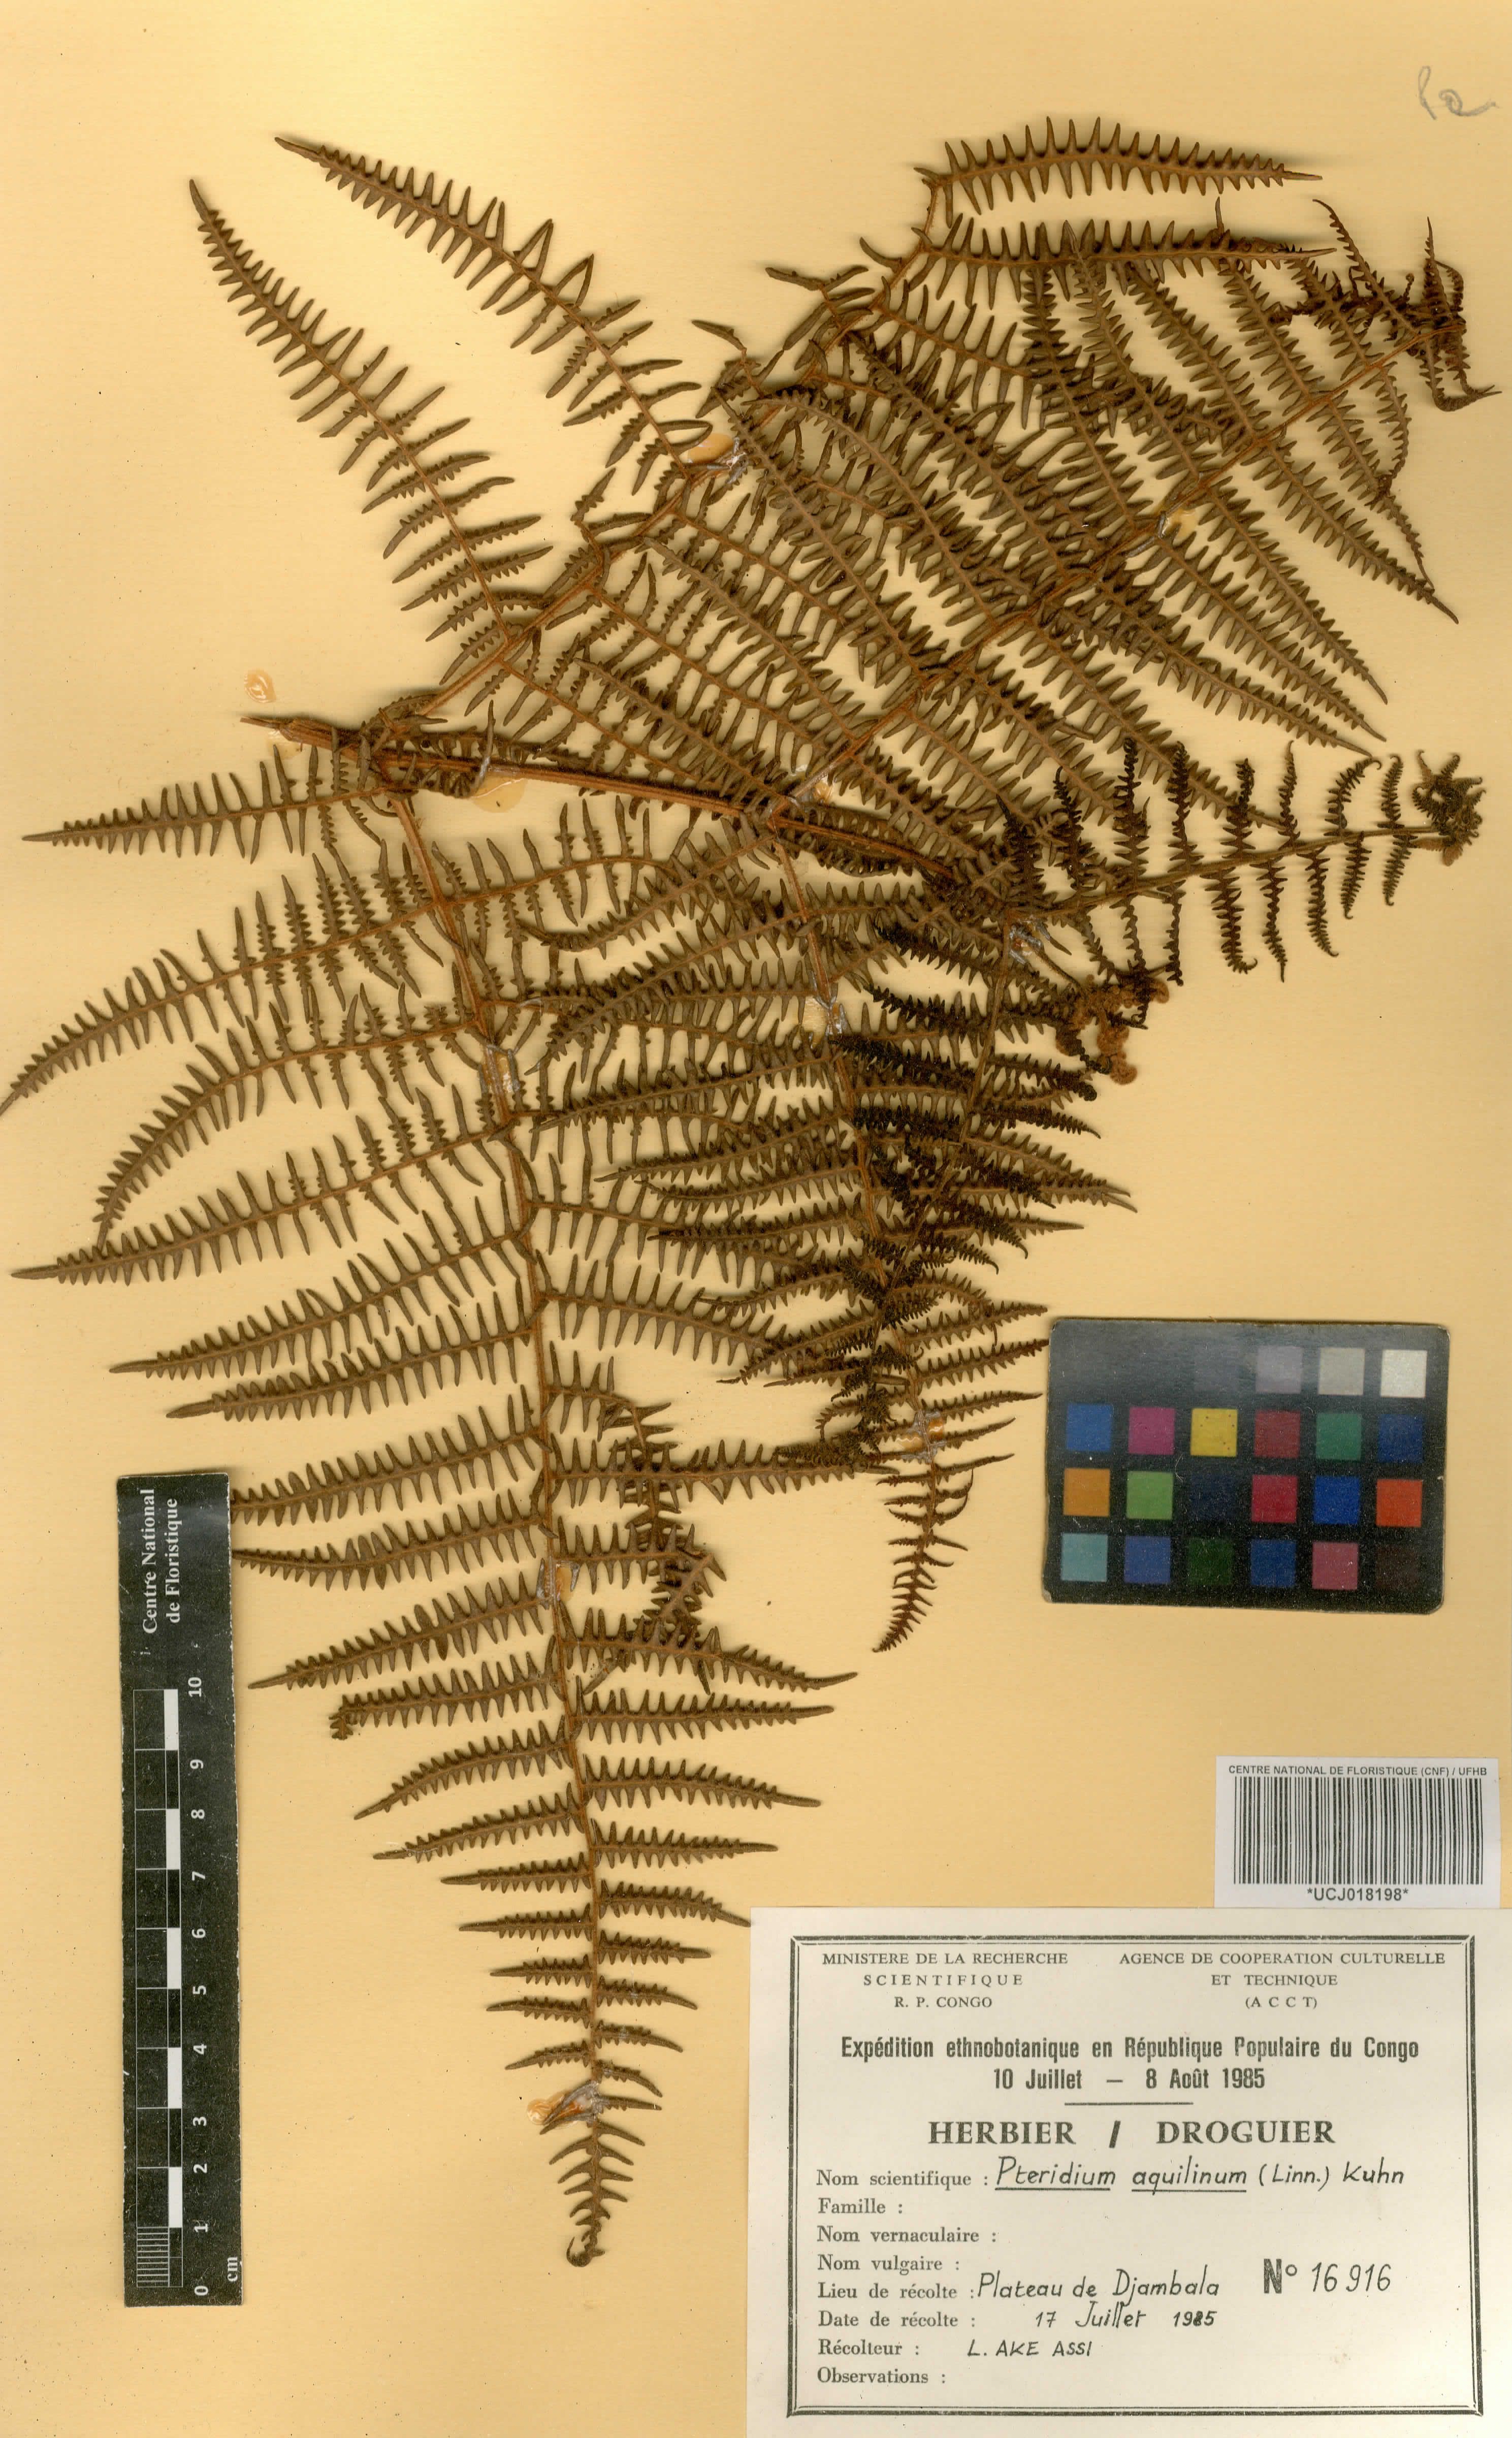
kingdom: Plantae
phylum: Tracheophyta
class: Polypodiopsida
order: Polypodiales
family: Dennstaedtiaceae
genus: Pteridium
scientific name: Pteridium aquilinum
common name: Bracken
